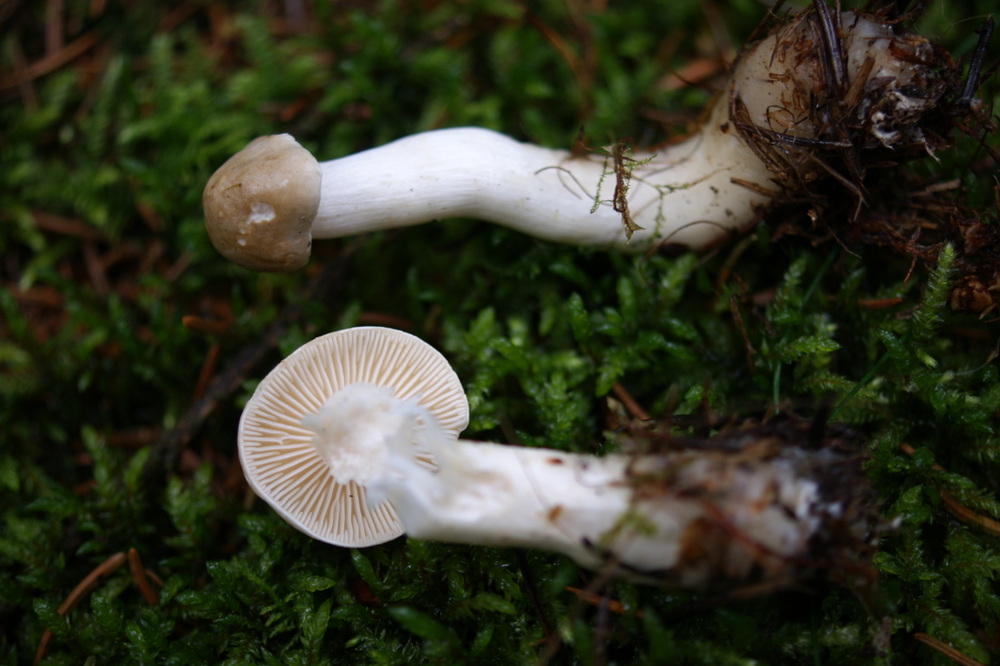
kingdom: Fungi
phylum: Basidiomycota
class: Agaricomycetes
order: Agaricales
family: Tricholomataceae
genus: Tricholoma
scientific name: Tricholoma inamoenum
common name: højstokket ridderhat
